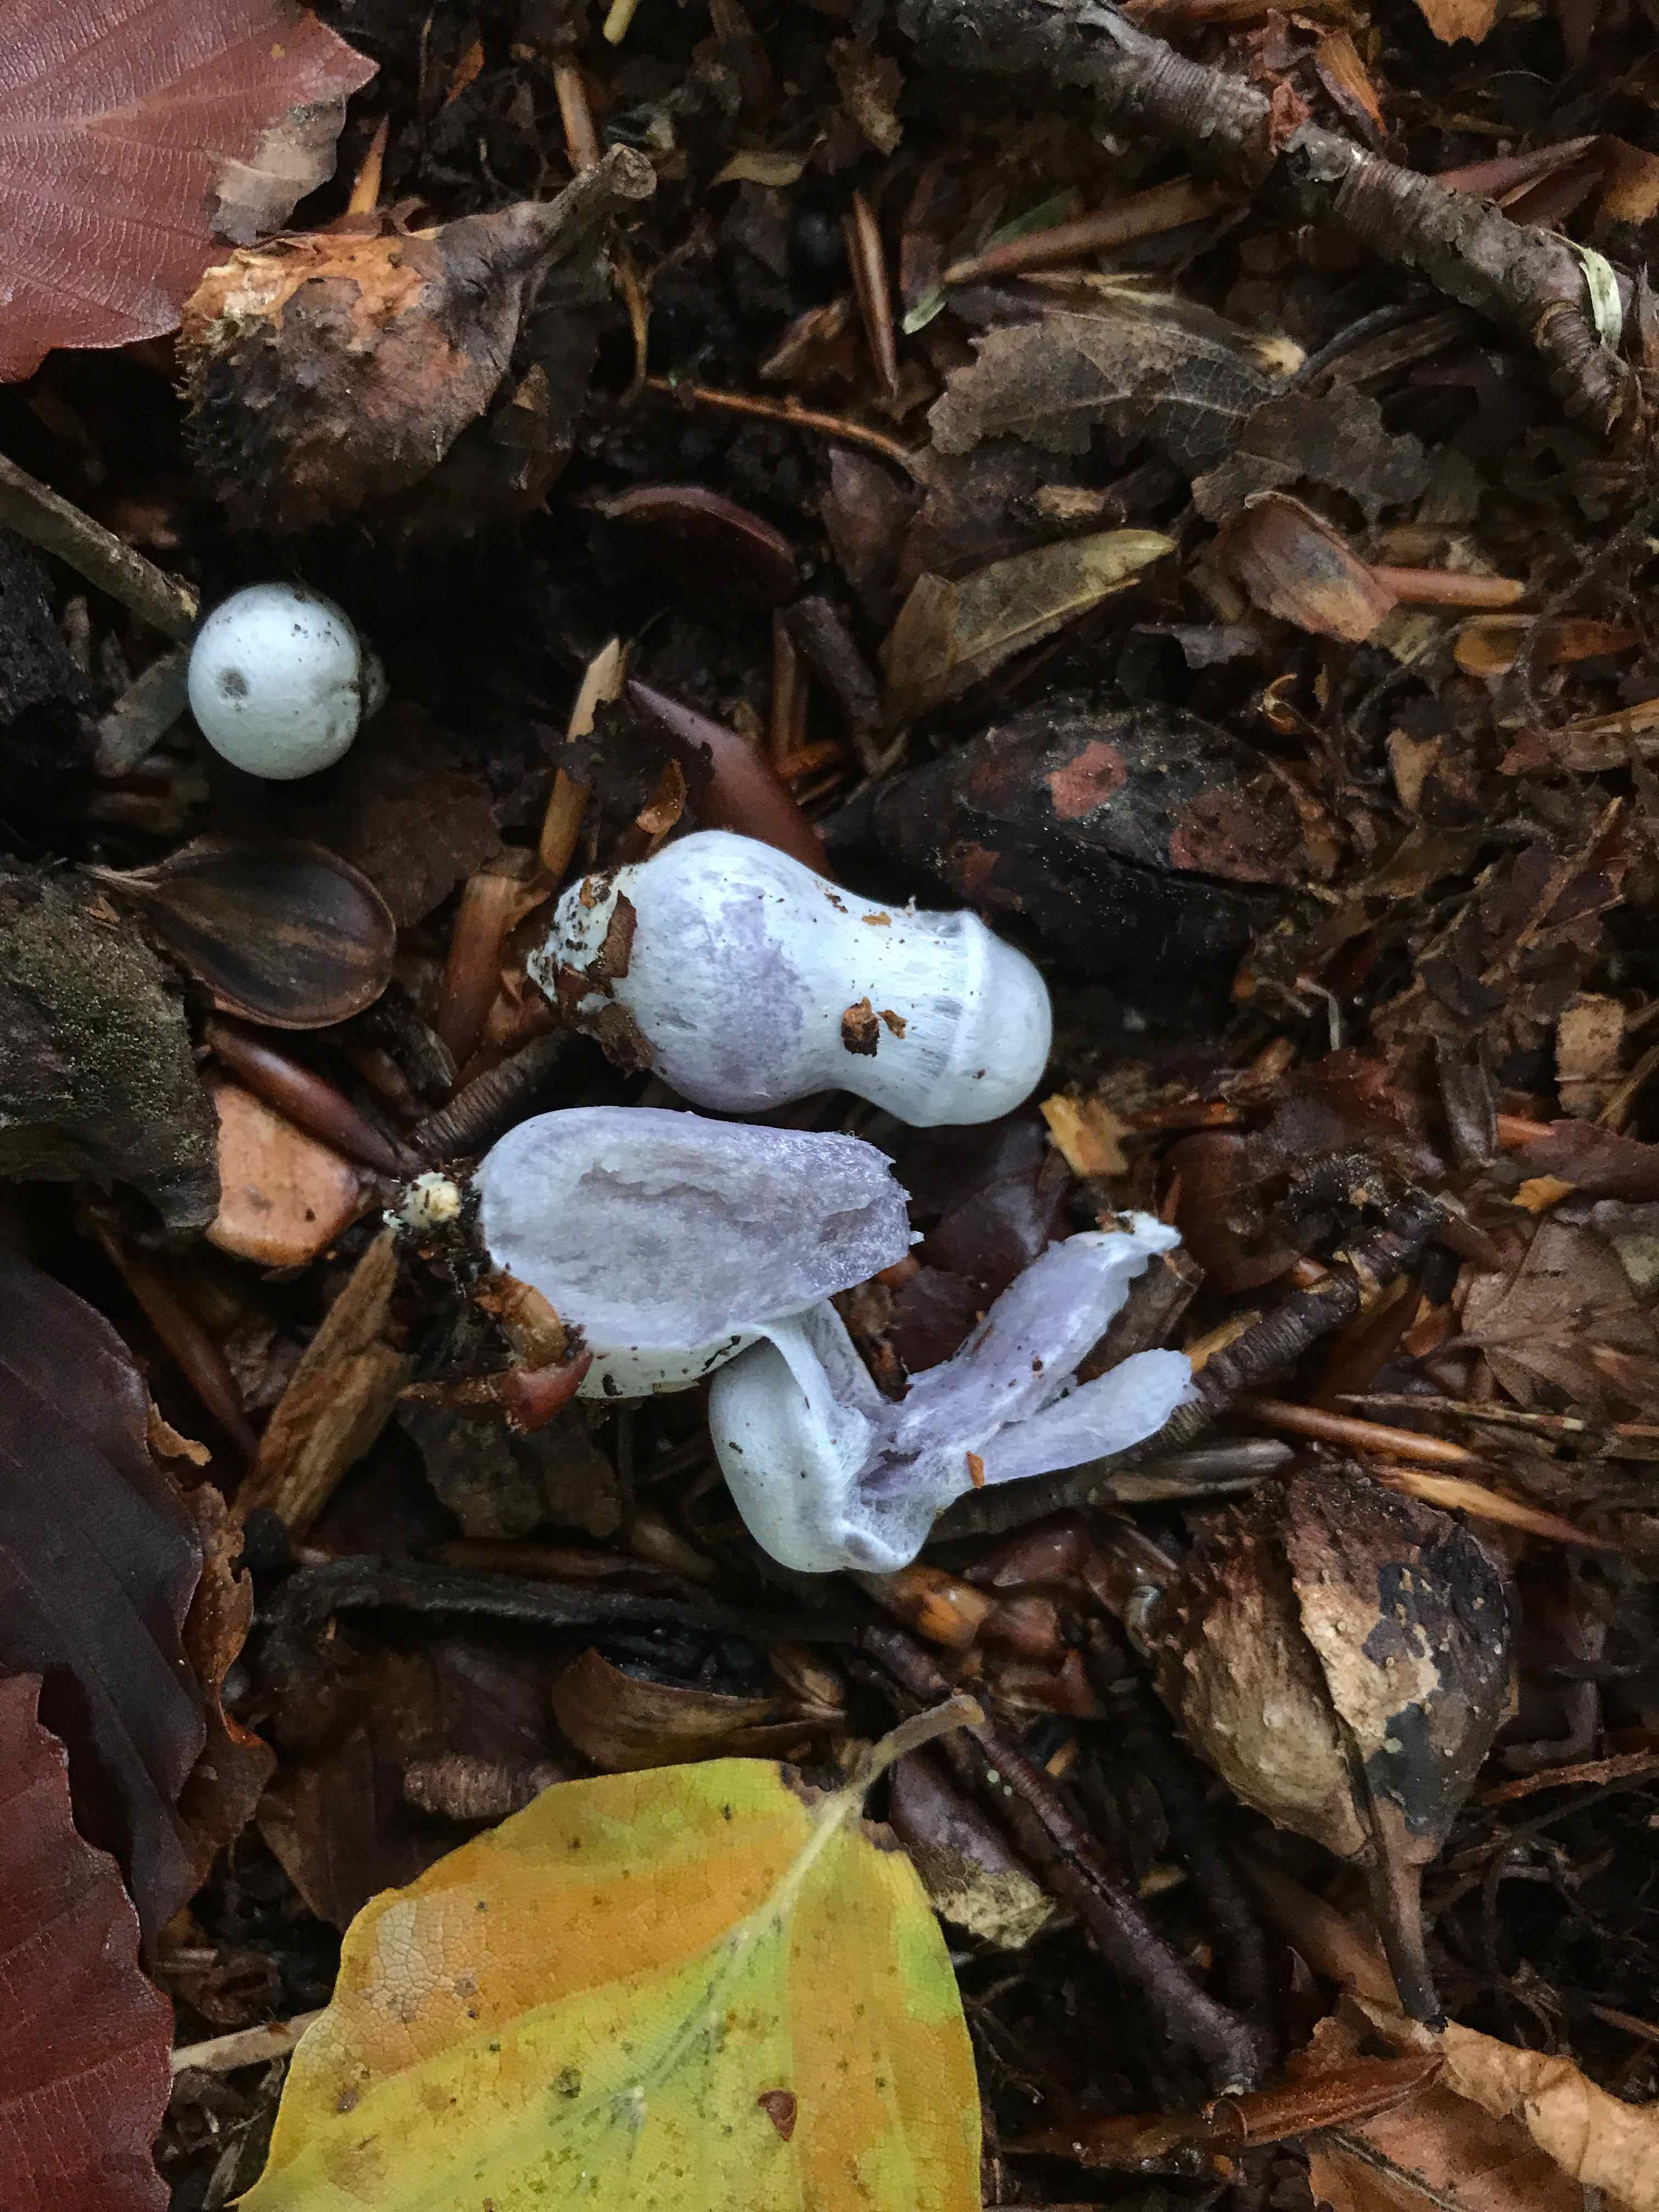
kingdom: Fungi
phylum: Basidiomycota
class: Agaricomycetes
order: Agaricales
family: Cortinariaceae
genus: Cortinarius
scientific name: Cortinarius
